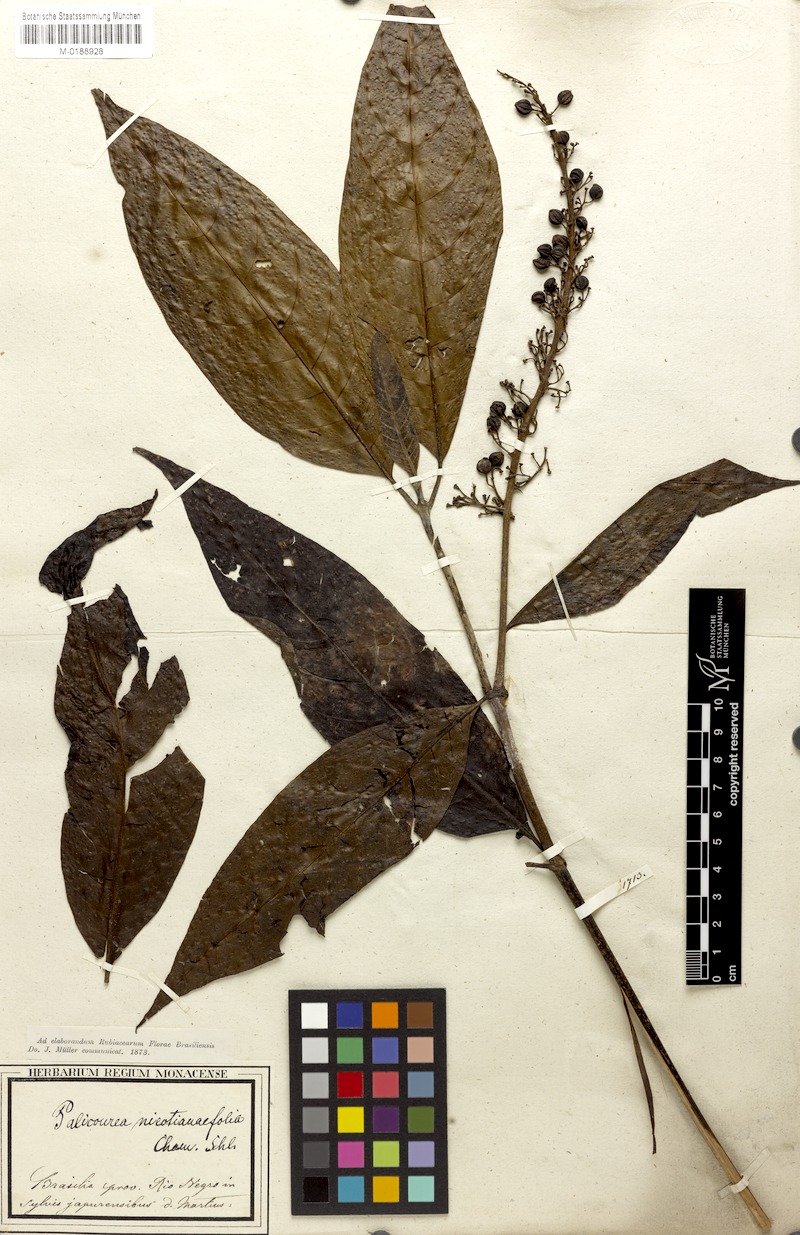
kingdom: Plantae
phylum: Tracheophyta
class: Magnoliopsida
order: Gentianales
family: Rubiaceae
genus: Palicourea
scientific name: Palicourea anisoloba
